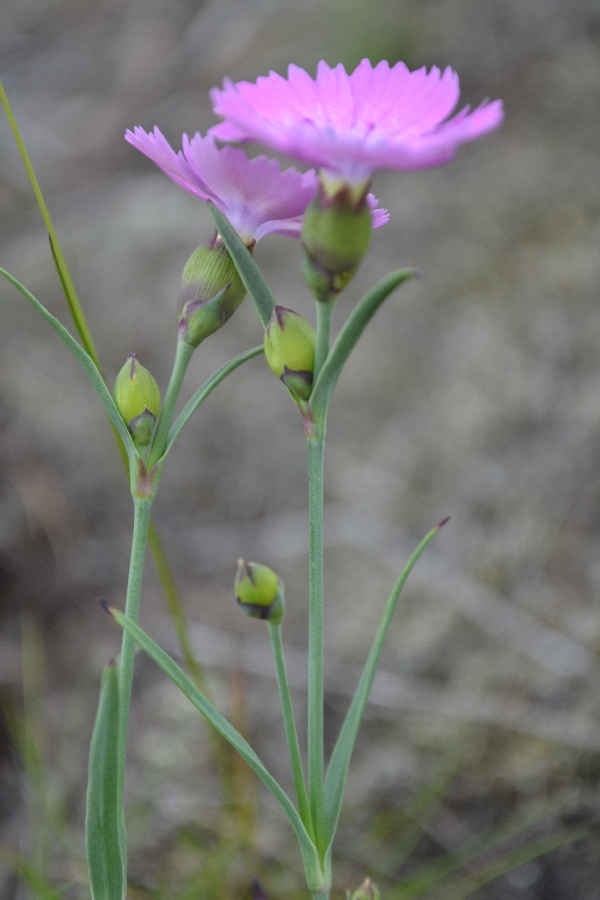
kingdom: Plantae
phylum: Tracheophyta
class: Magnoliopsida
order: Caryophyllales
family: Caryophyllaceae
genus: Dianthus
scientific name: Dianthus repens
